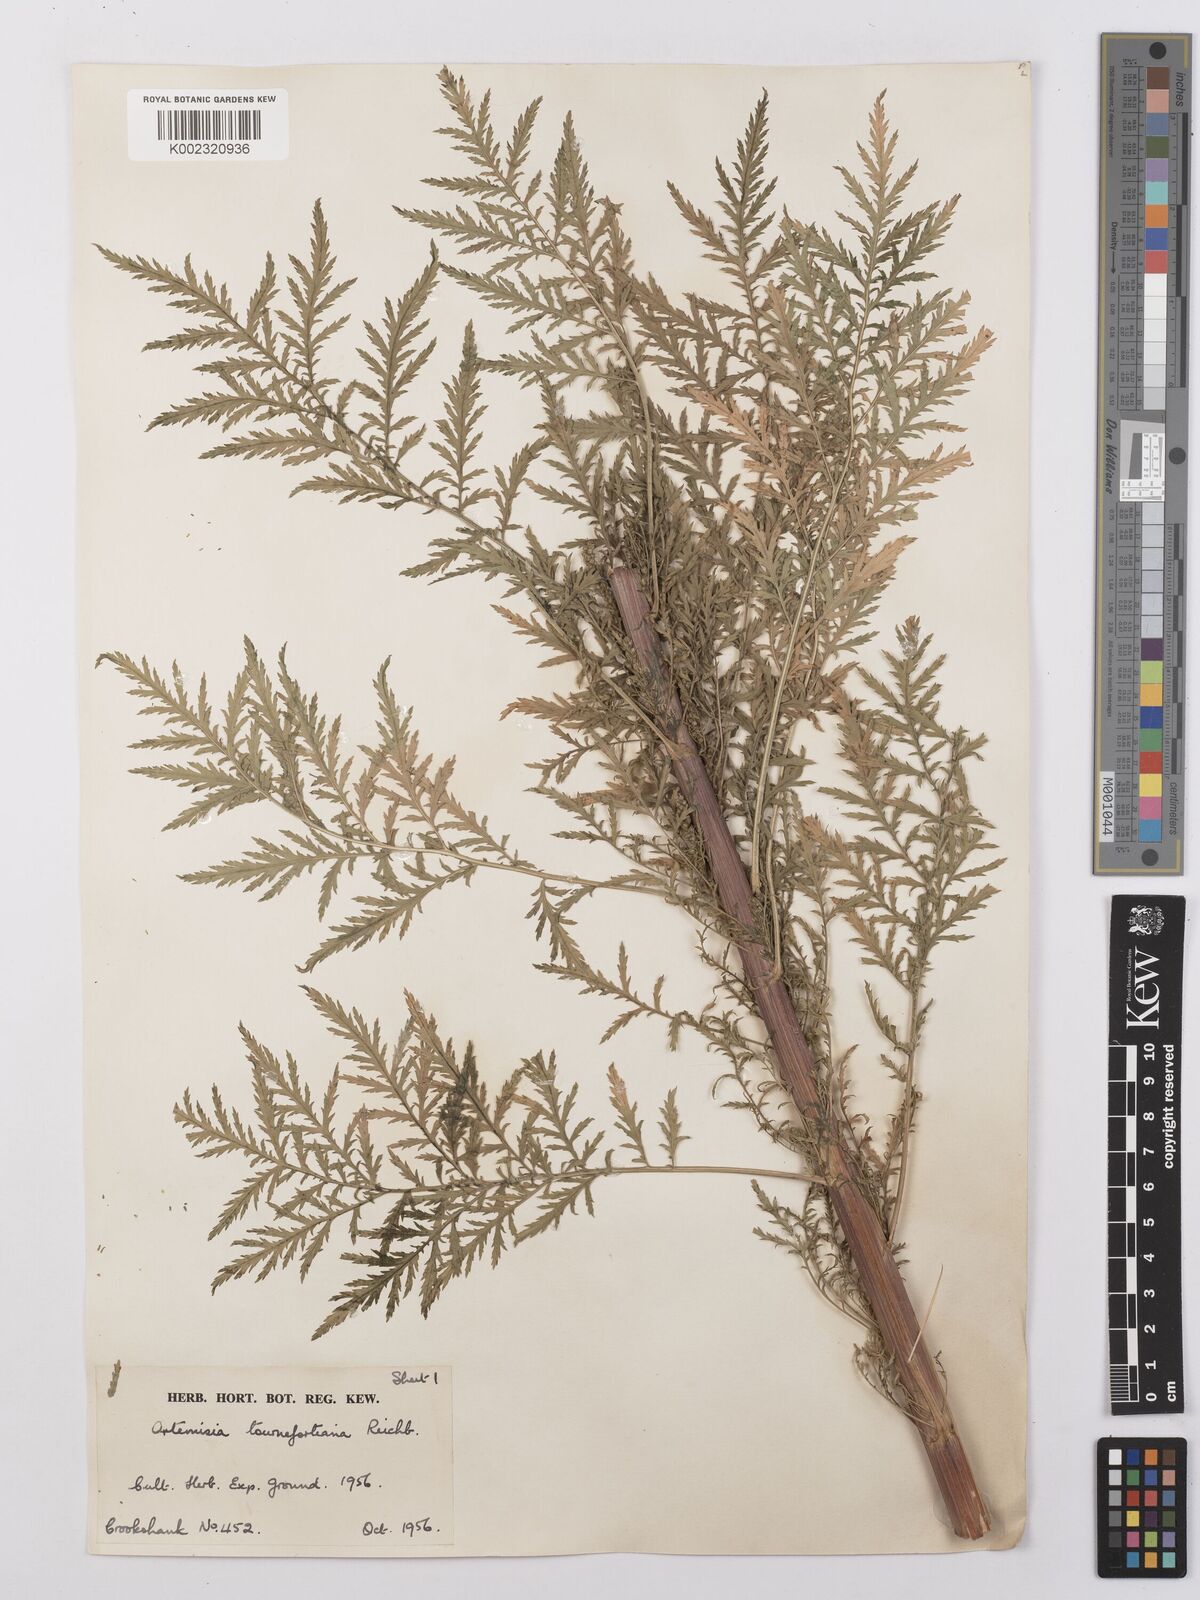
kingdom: Plantae
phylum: Tracheophyta
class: Magnoliopsida
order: Asterales
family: Asteraceae
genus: Artemisia
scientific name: Artemisia tournefortiana
